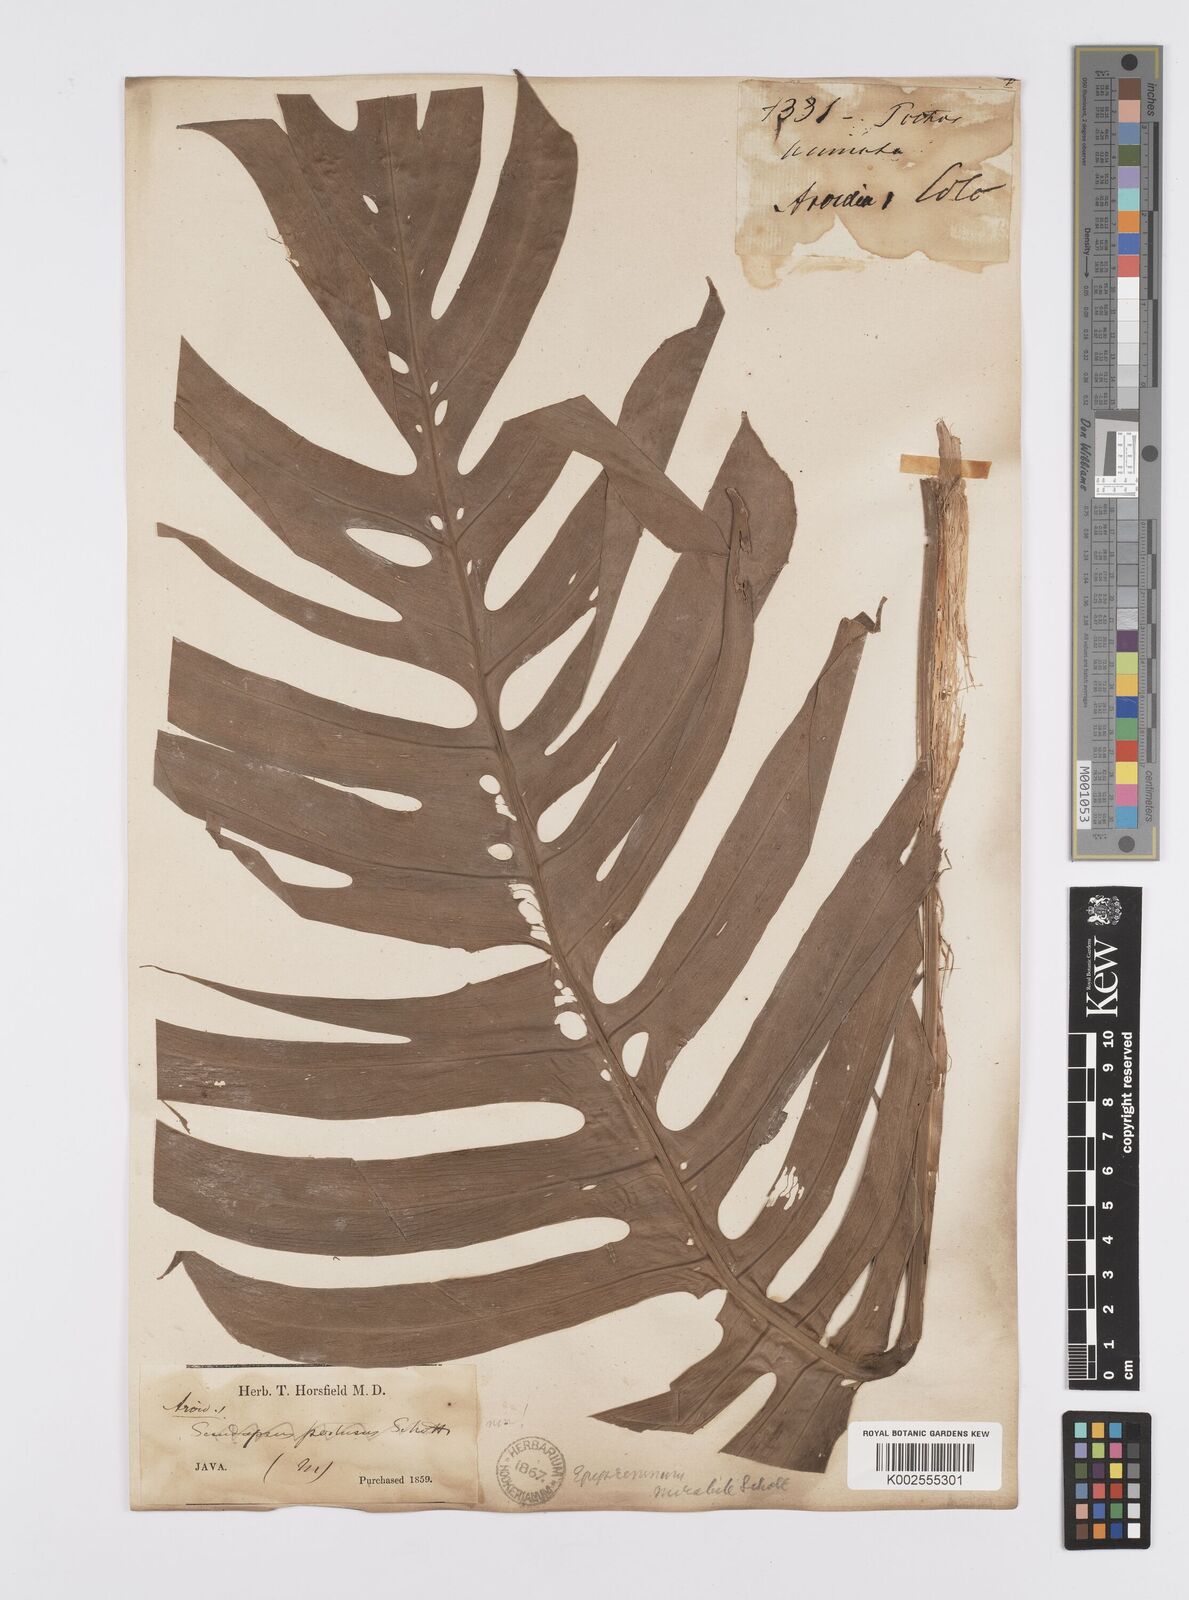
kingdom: Plantae
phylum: Tracheophyta
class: Liliopsida
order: Alismatales
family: Araceae
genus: Epipremnum
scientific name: Epipremnum pinnatum
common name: Centipede tongavine
